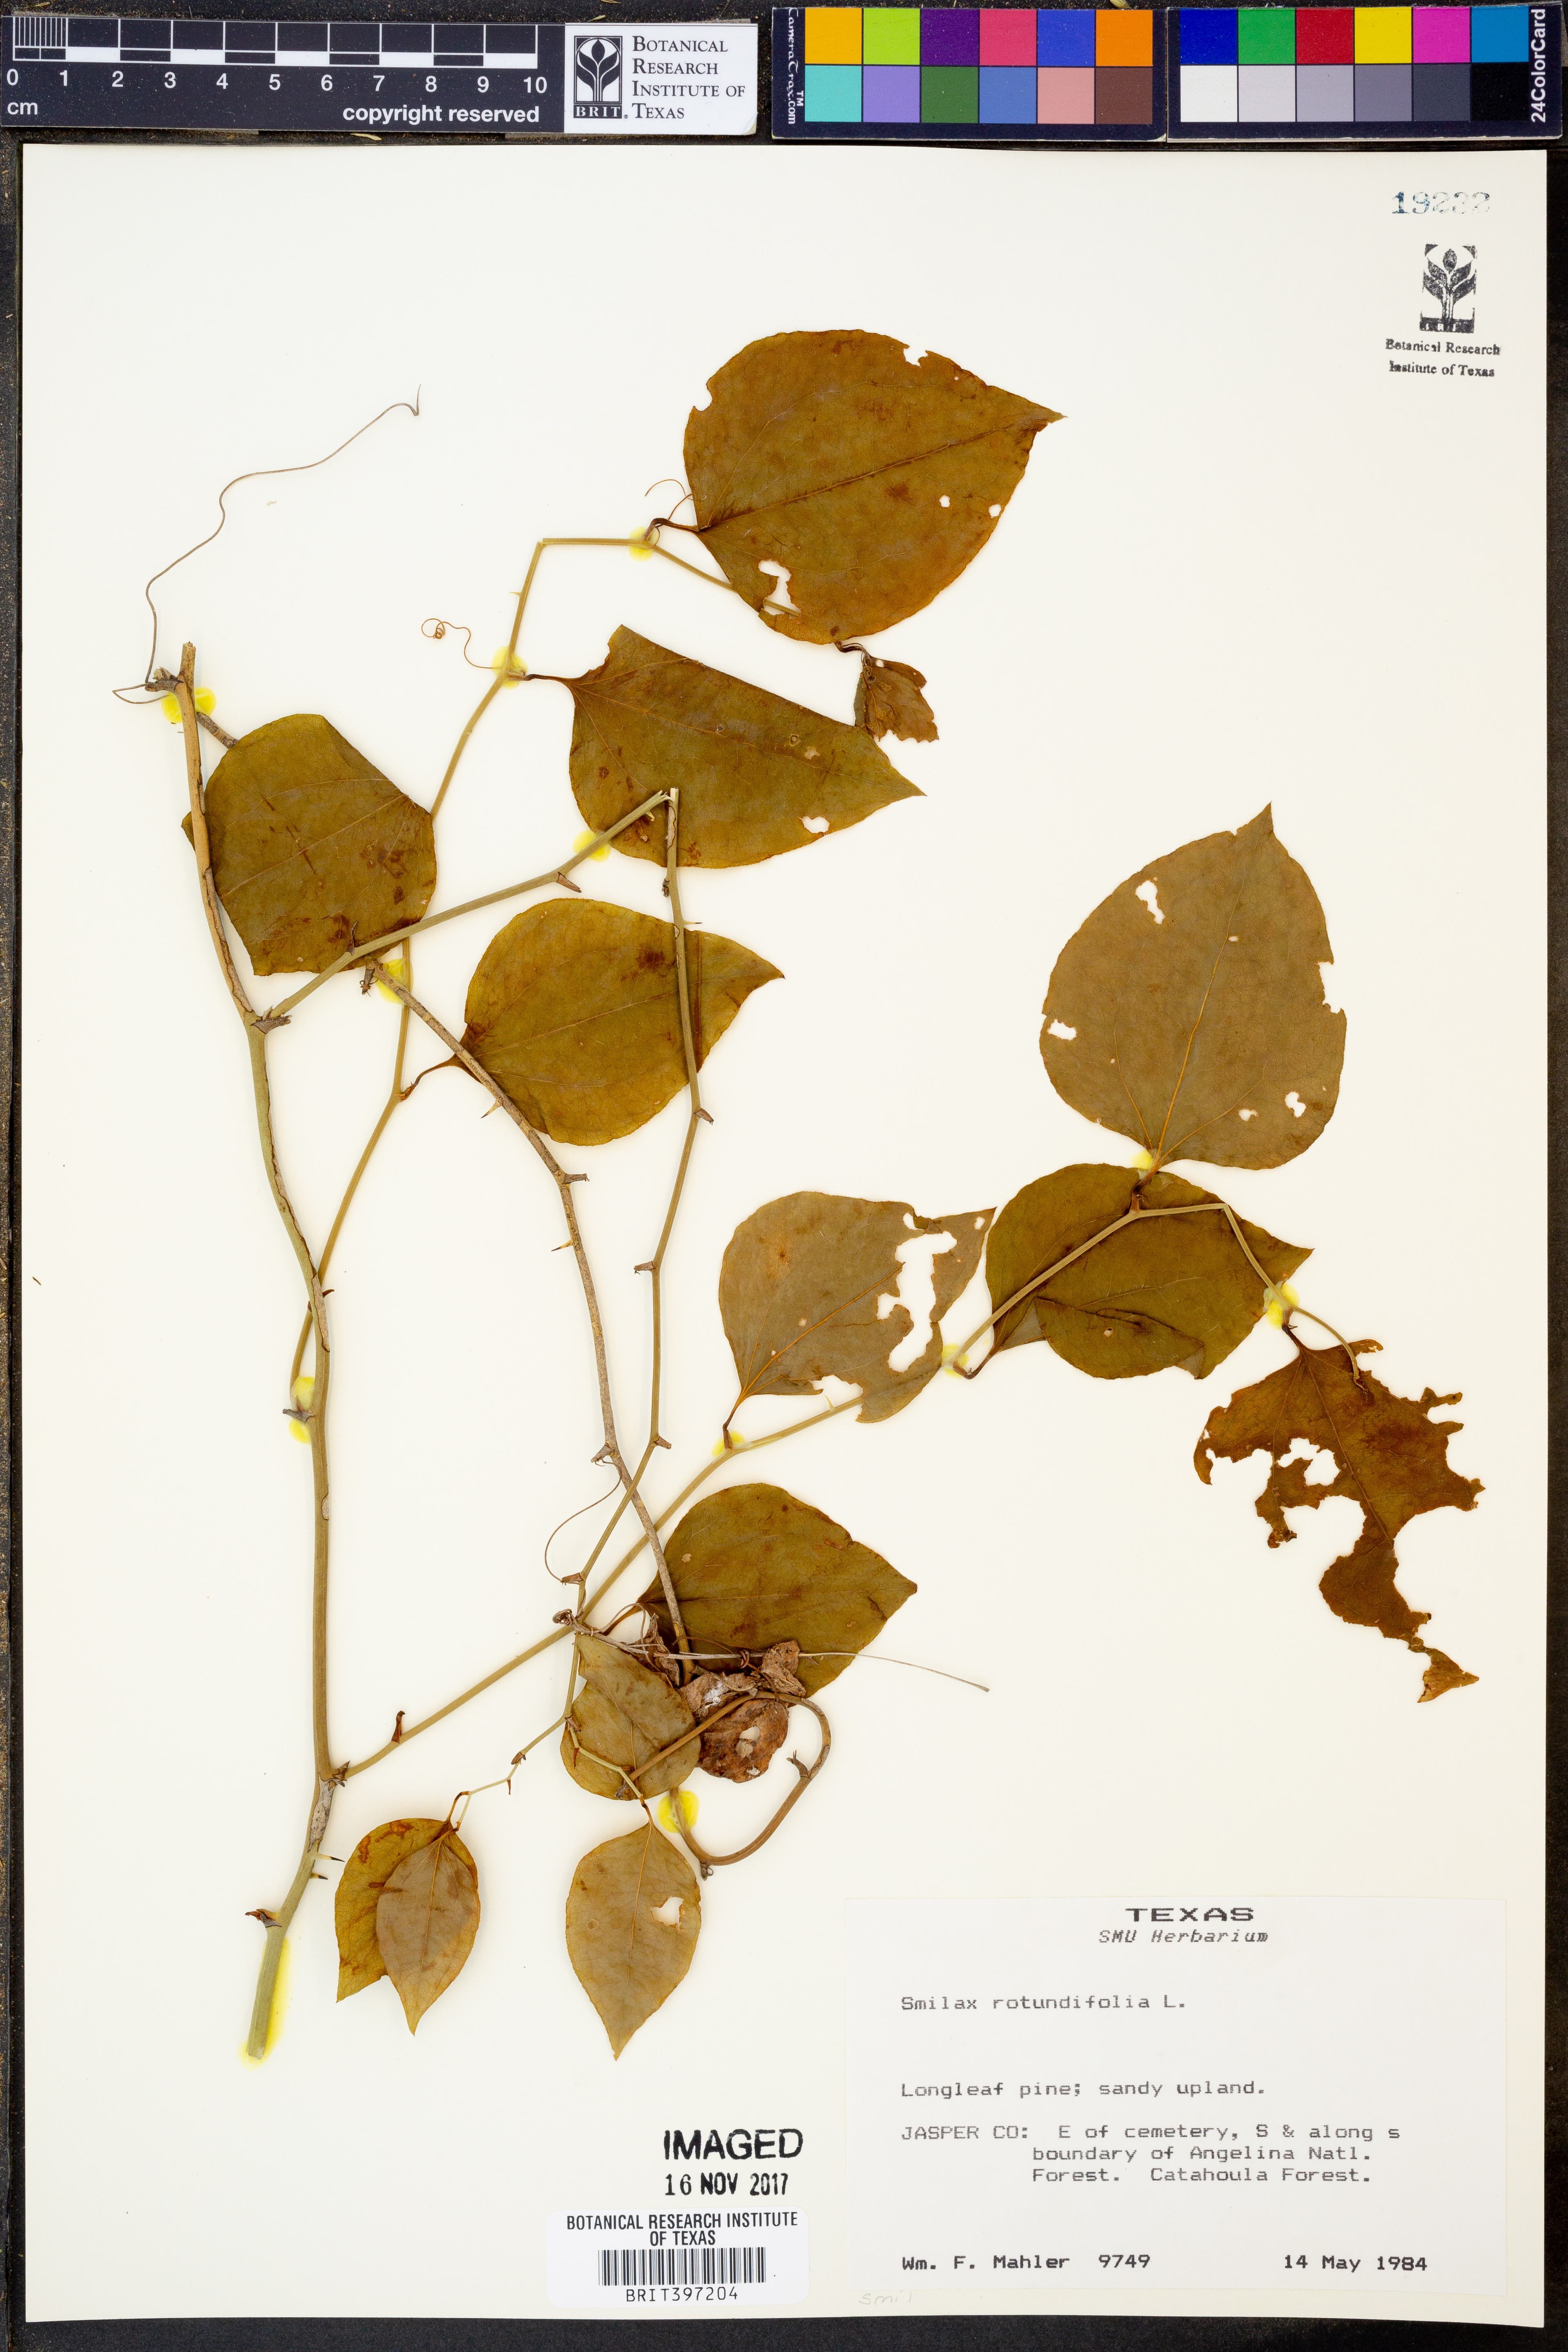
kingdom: Plantae
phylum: Tracheophyta
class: Liliopsida
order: Liliales
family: Smilacaceae
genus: Smilax
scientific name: Smilax rotundifolia
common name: Bullbriar
